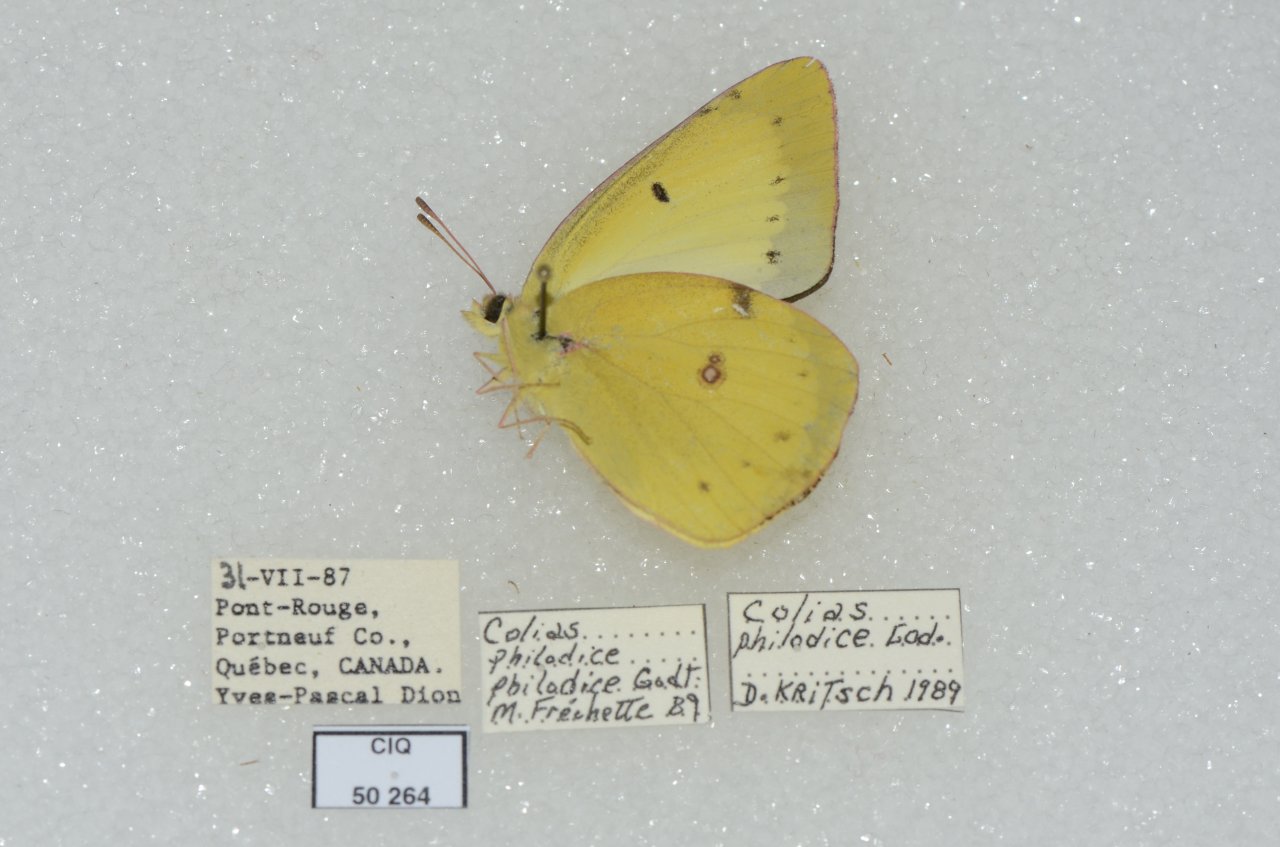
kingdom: Animalia
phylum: Arthropoda
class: Insecta
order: Lepidoptera
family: Pieridae
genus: Colias
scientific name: Colias philodice
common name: Clouded Sulphur
